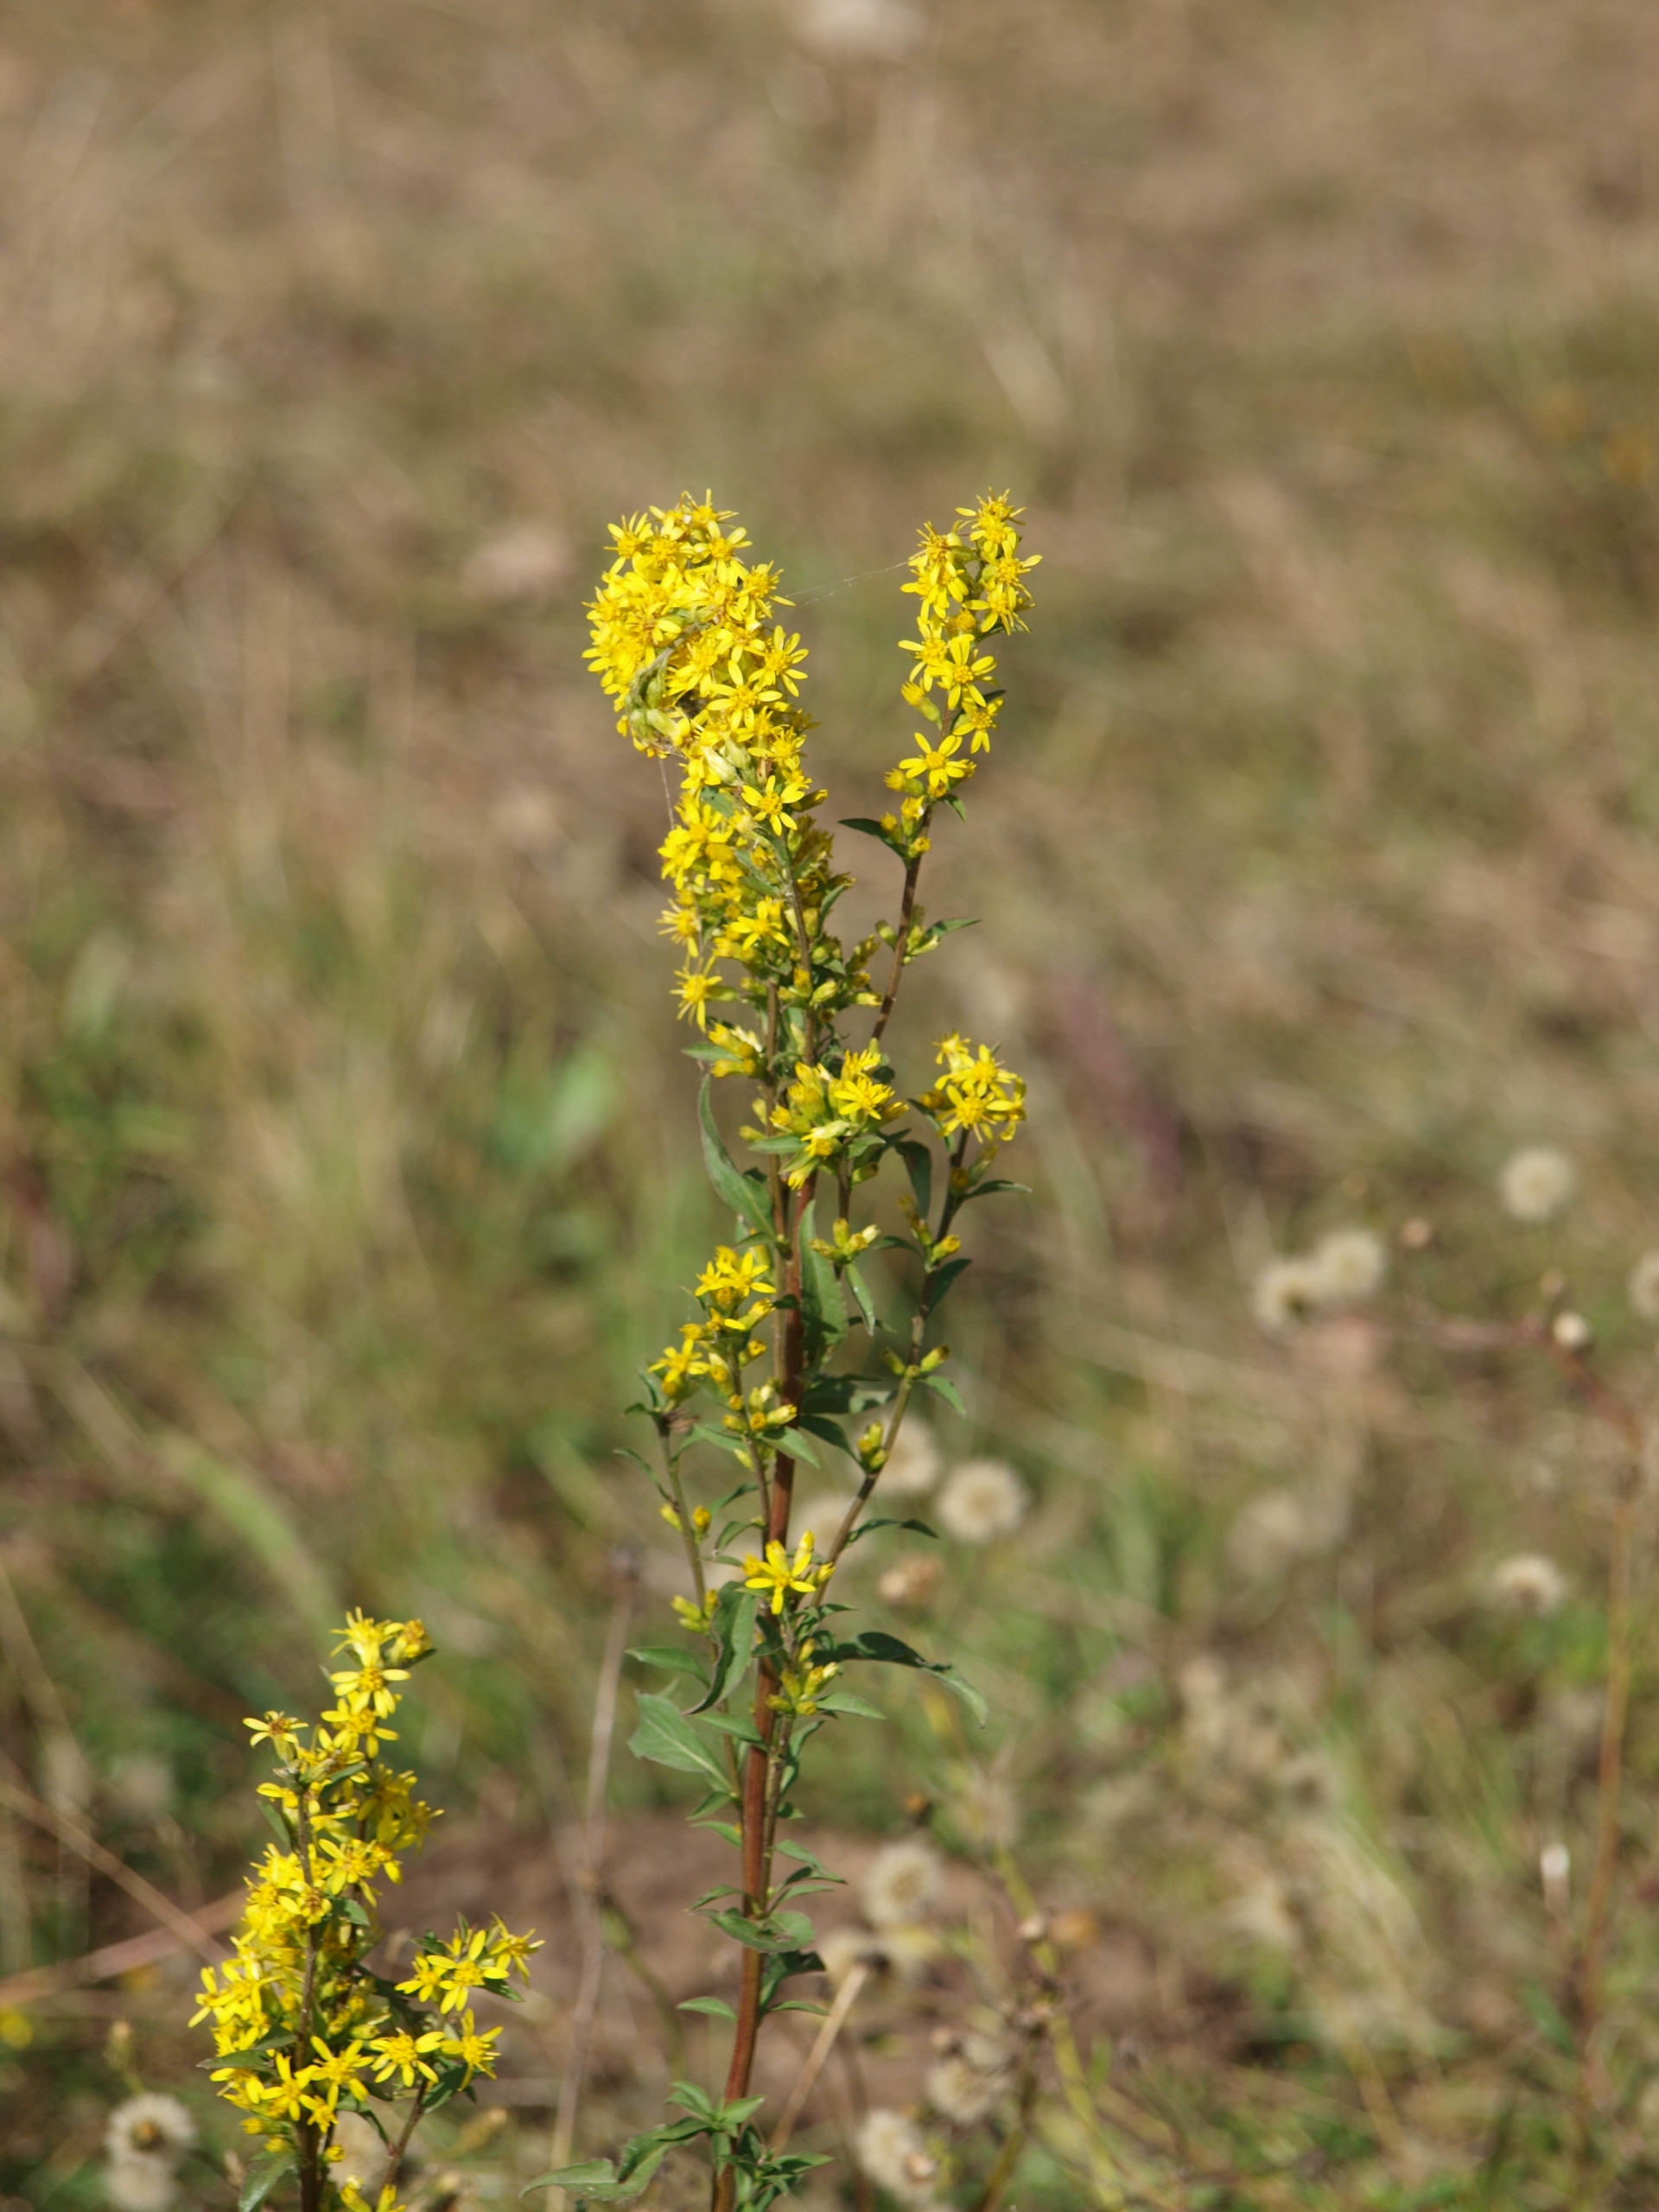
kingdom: Plantae
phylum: Tracheophyta
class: Magnoliopsida
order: Asterales
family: Asteraceae
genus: Solidago
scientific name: Solidago virgaurea
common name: Almindelig gyldenris
